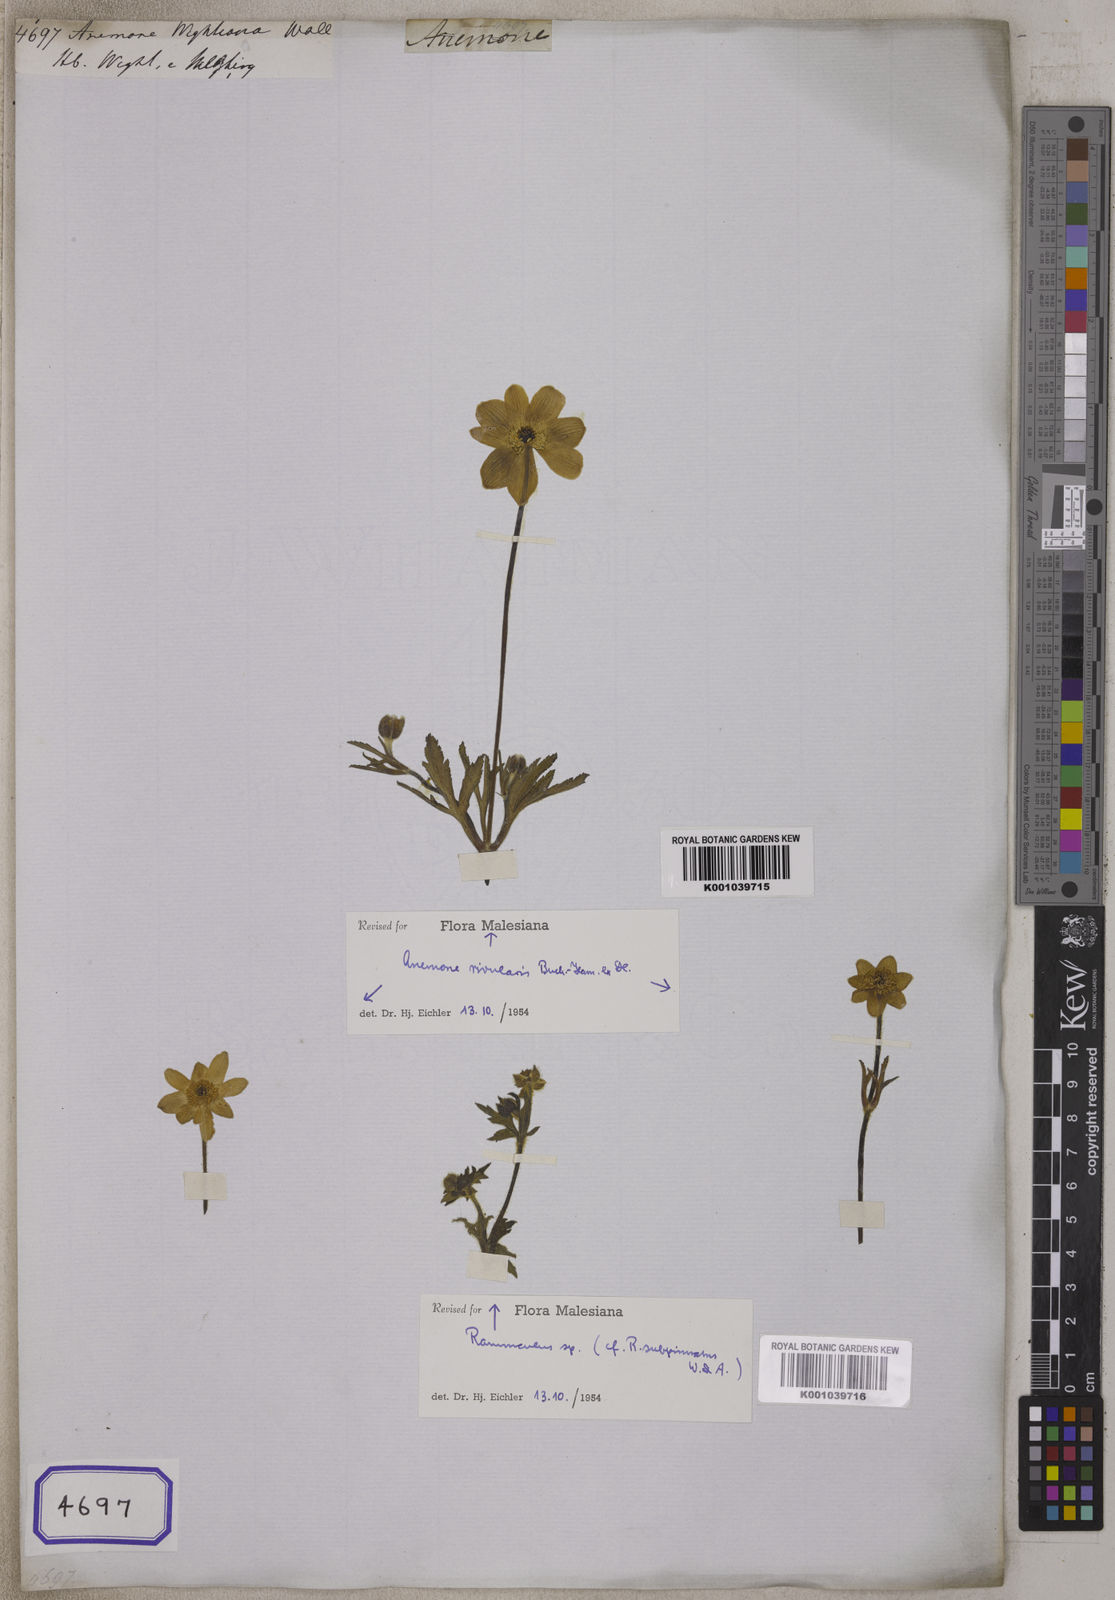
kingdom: Plantae
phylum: Tracheophyta
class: Magnoliopsida
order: Ranunculales
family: Ranunculaceae
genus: Anemone
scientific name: Anemone
